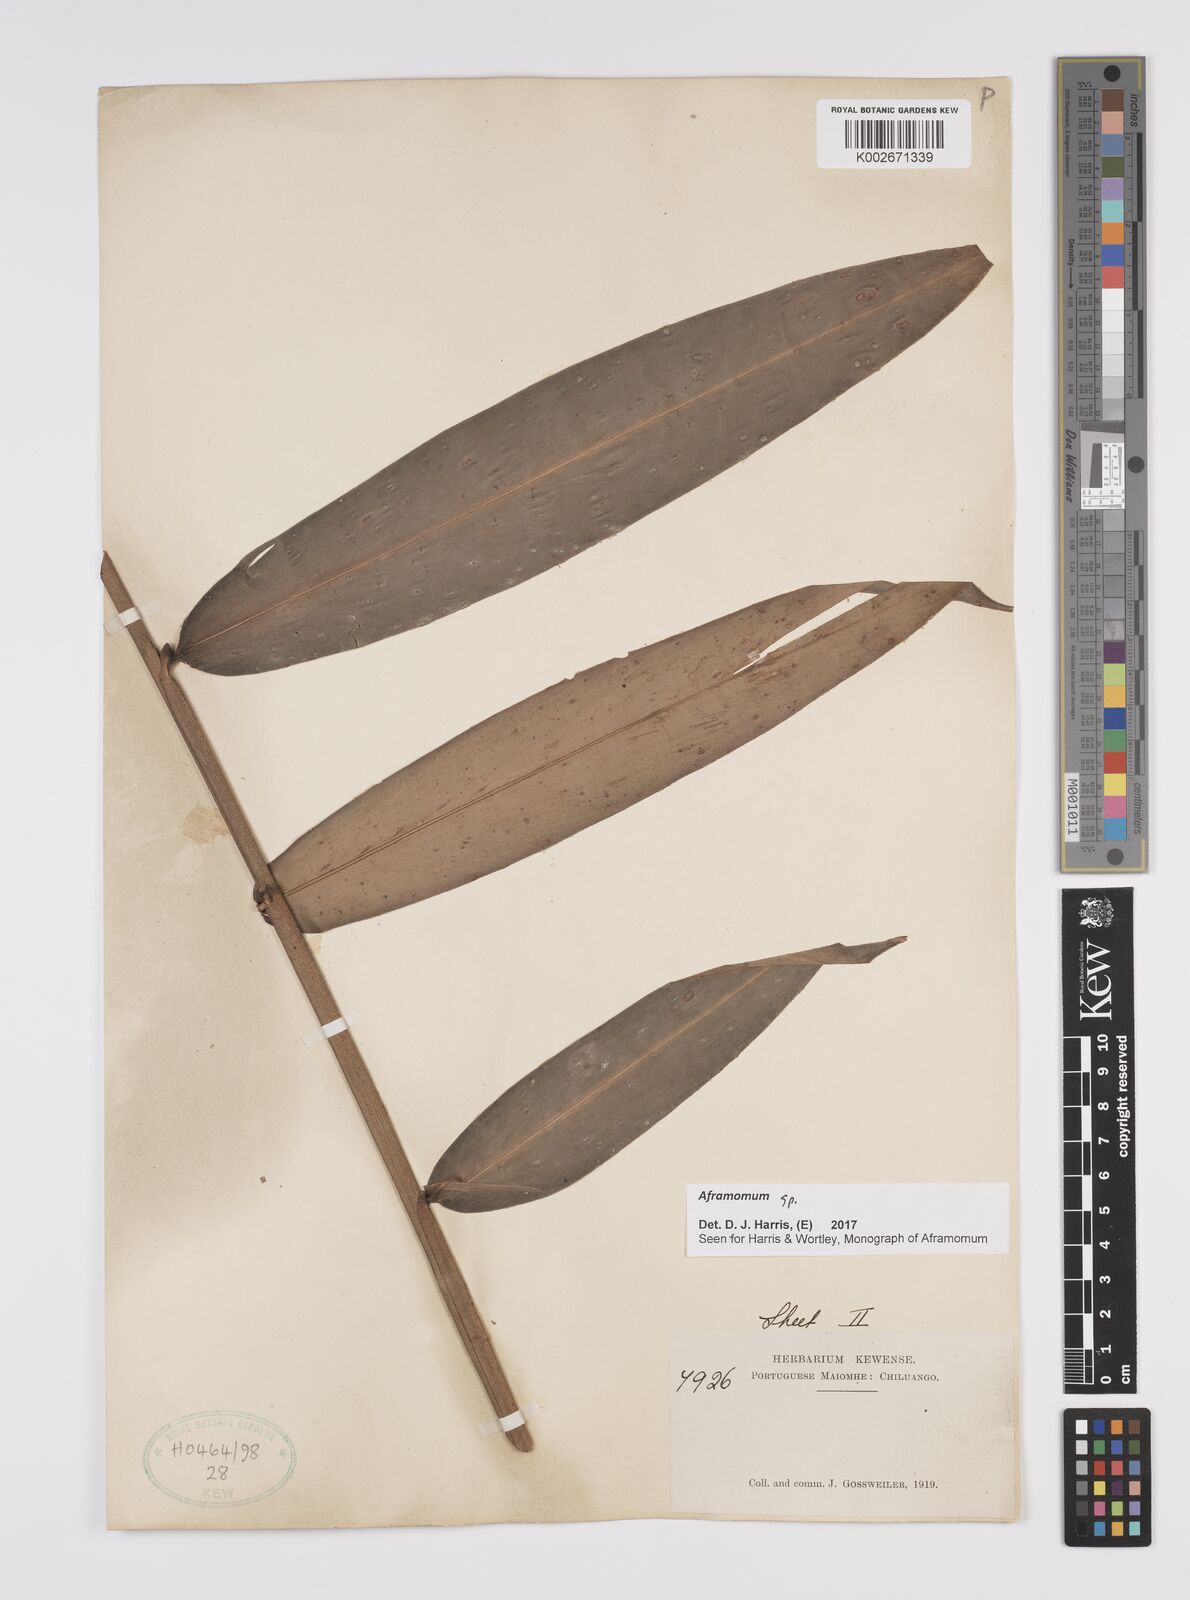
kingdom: Plantae
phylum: Tracheophyta
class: Liliopsida
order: Zingiberales
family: Zingiberaceae
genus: Aframomum
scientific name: Aframomum
